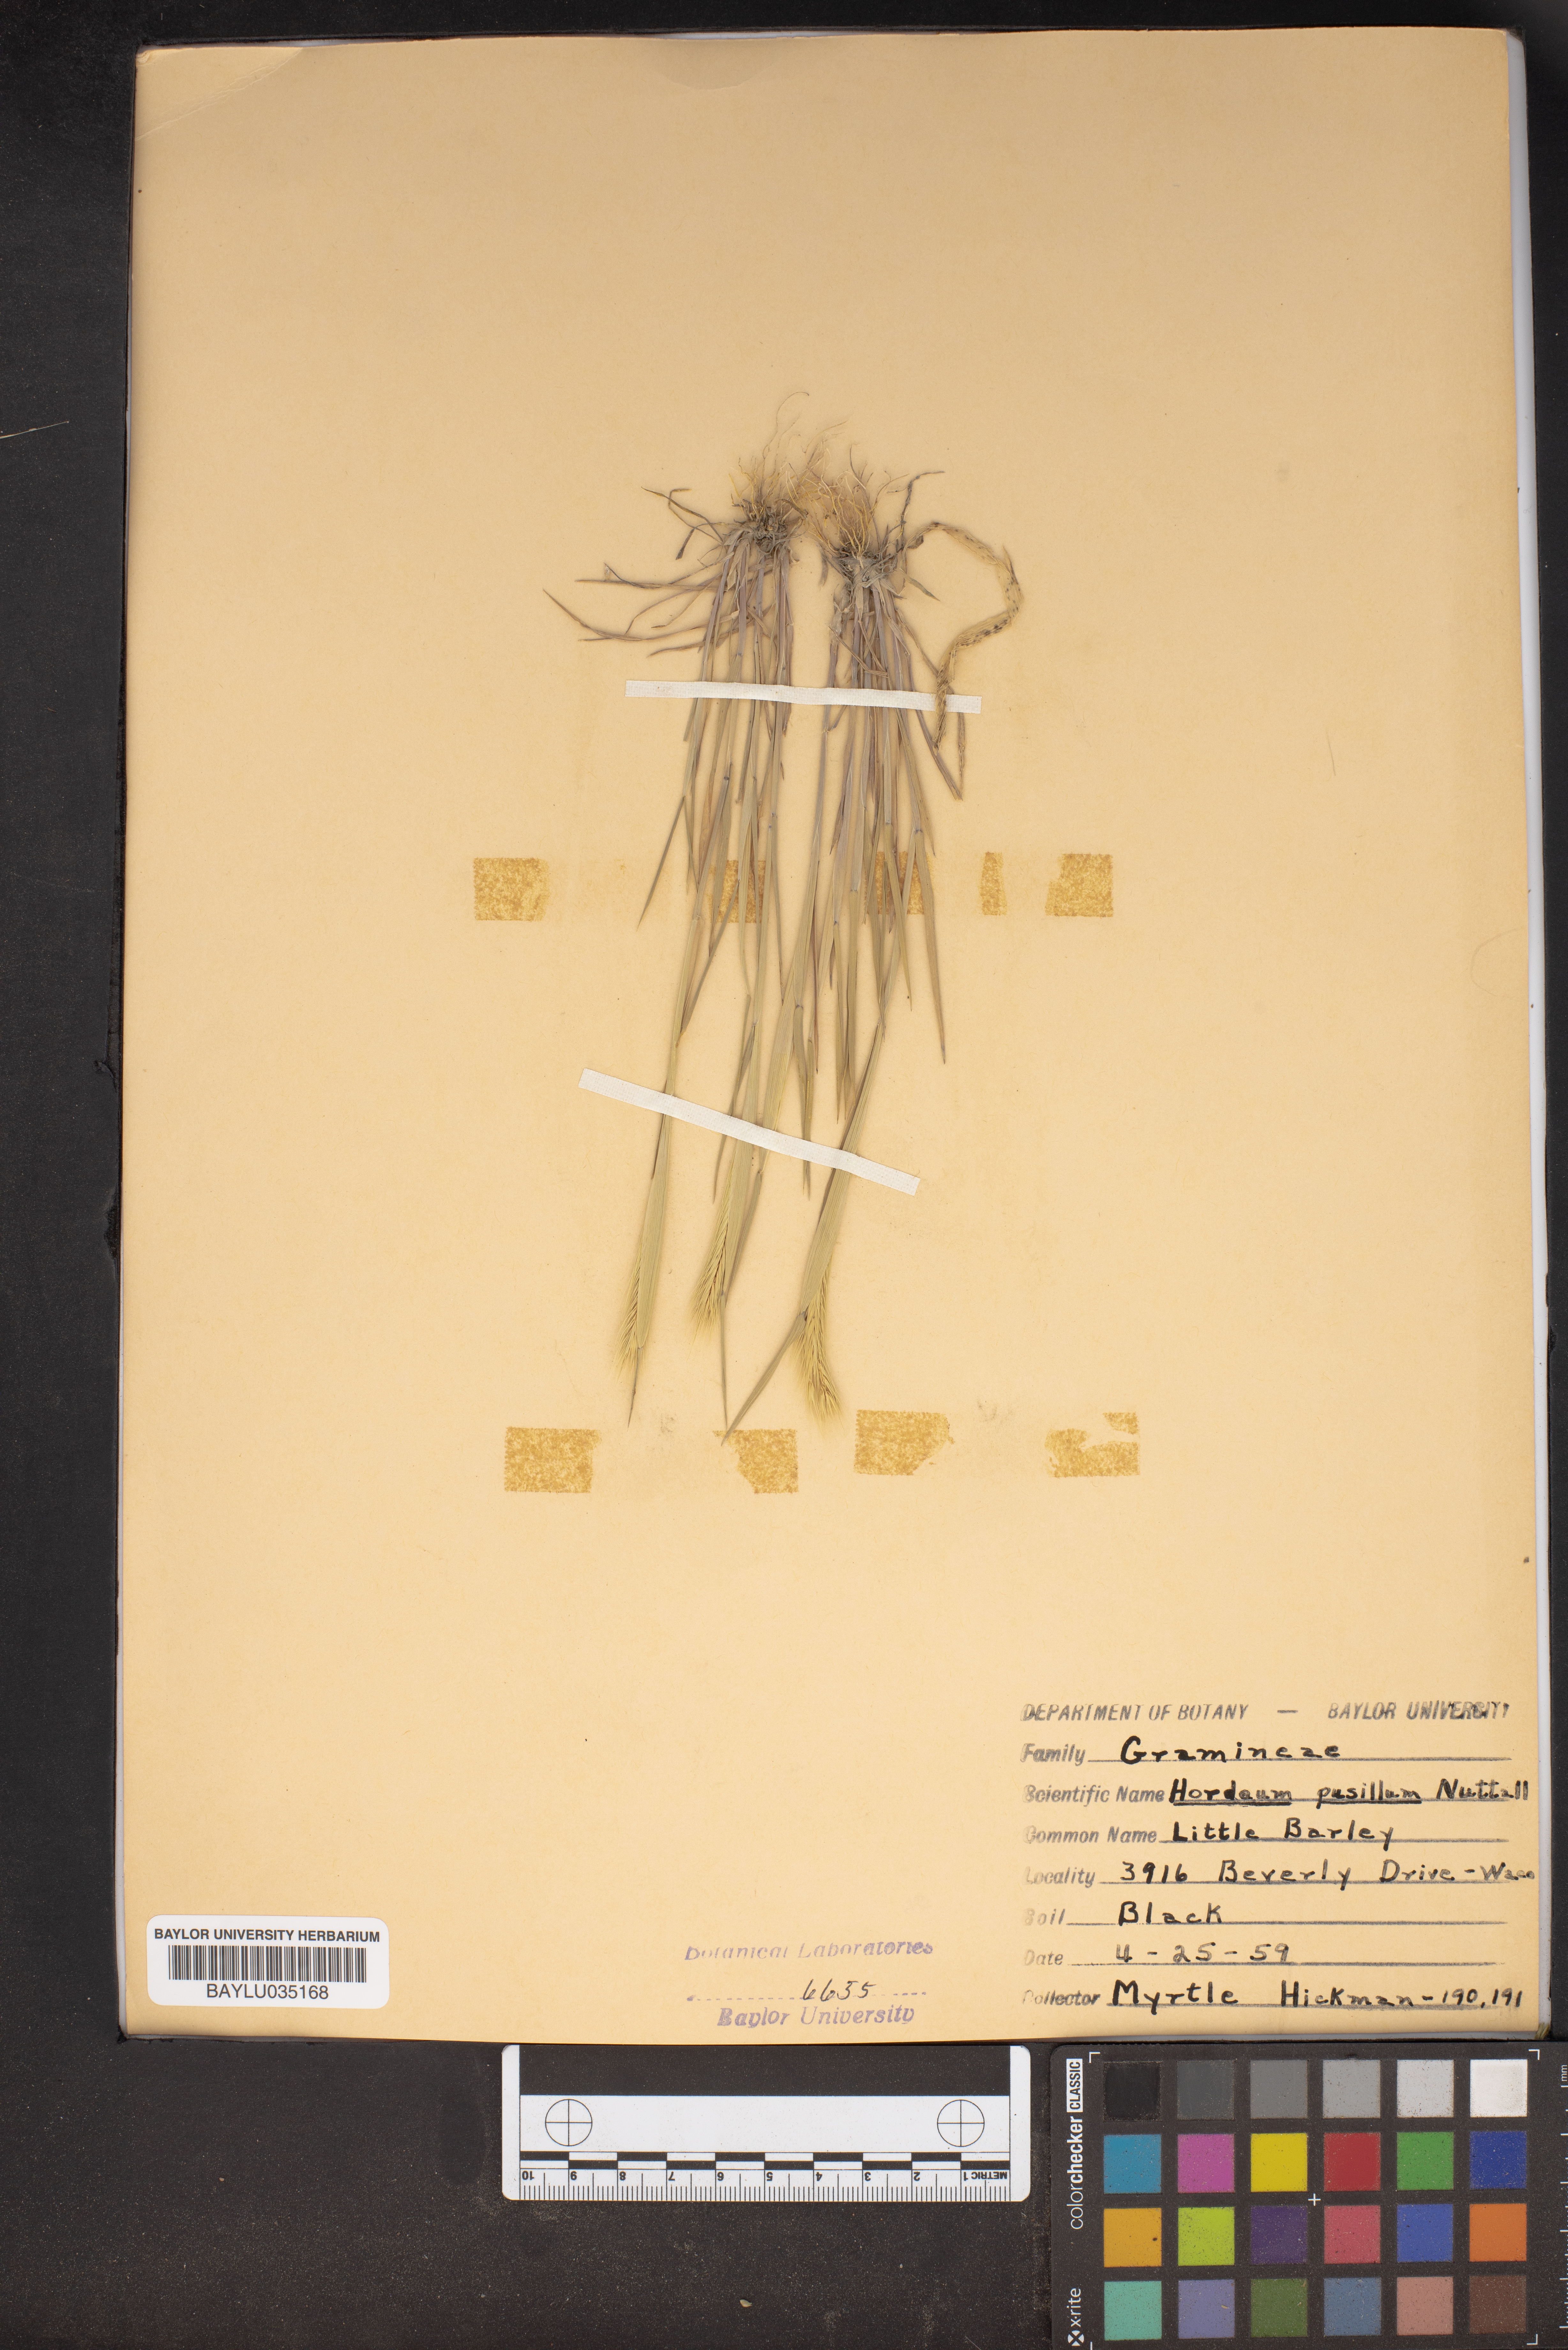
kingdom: Plantae
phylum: Tracheophyta
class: Liliopsida
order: Poales
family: Poaceae
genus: Hordeum
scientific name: Hordeum pusillum
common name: Little barley
